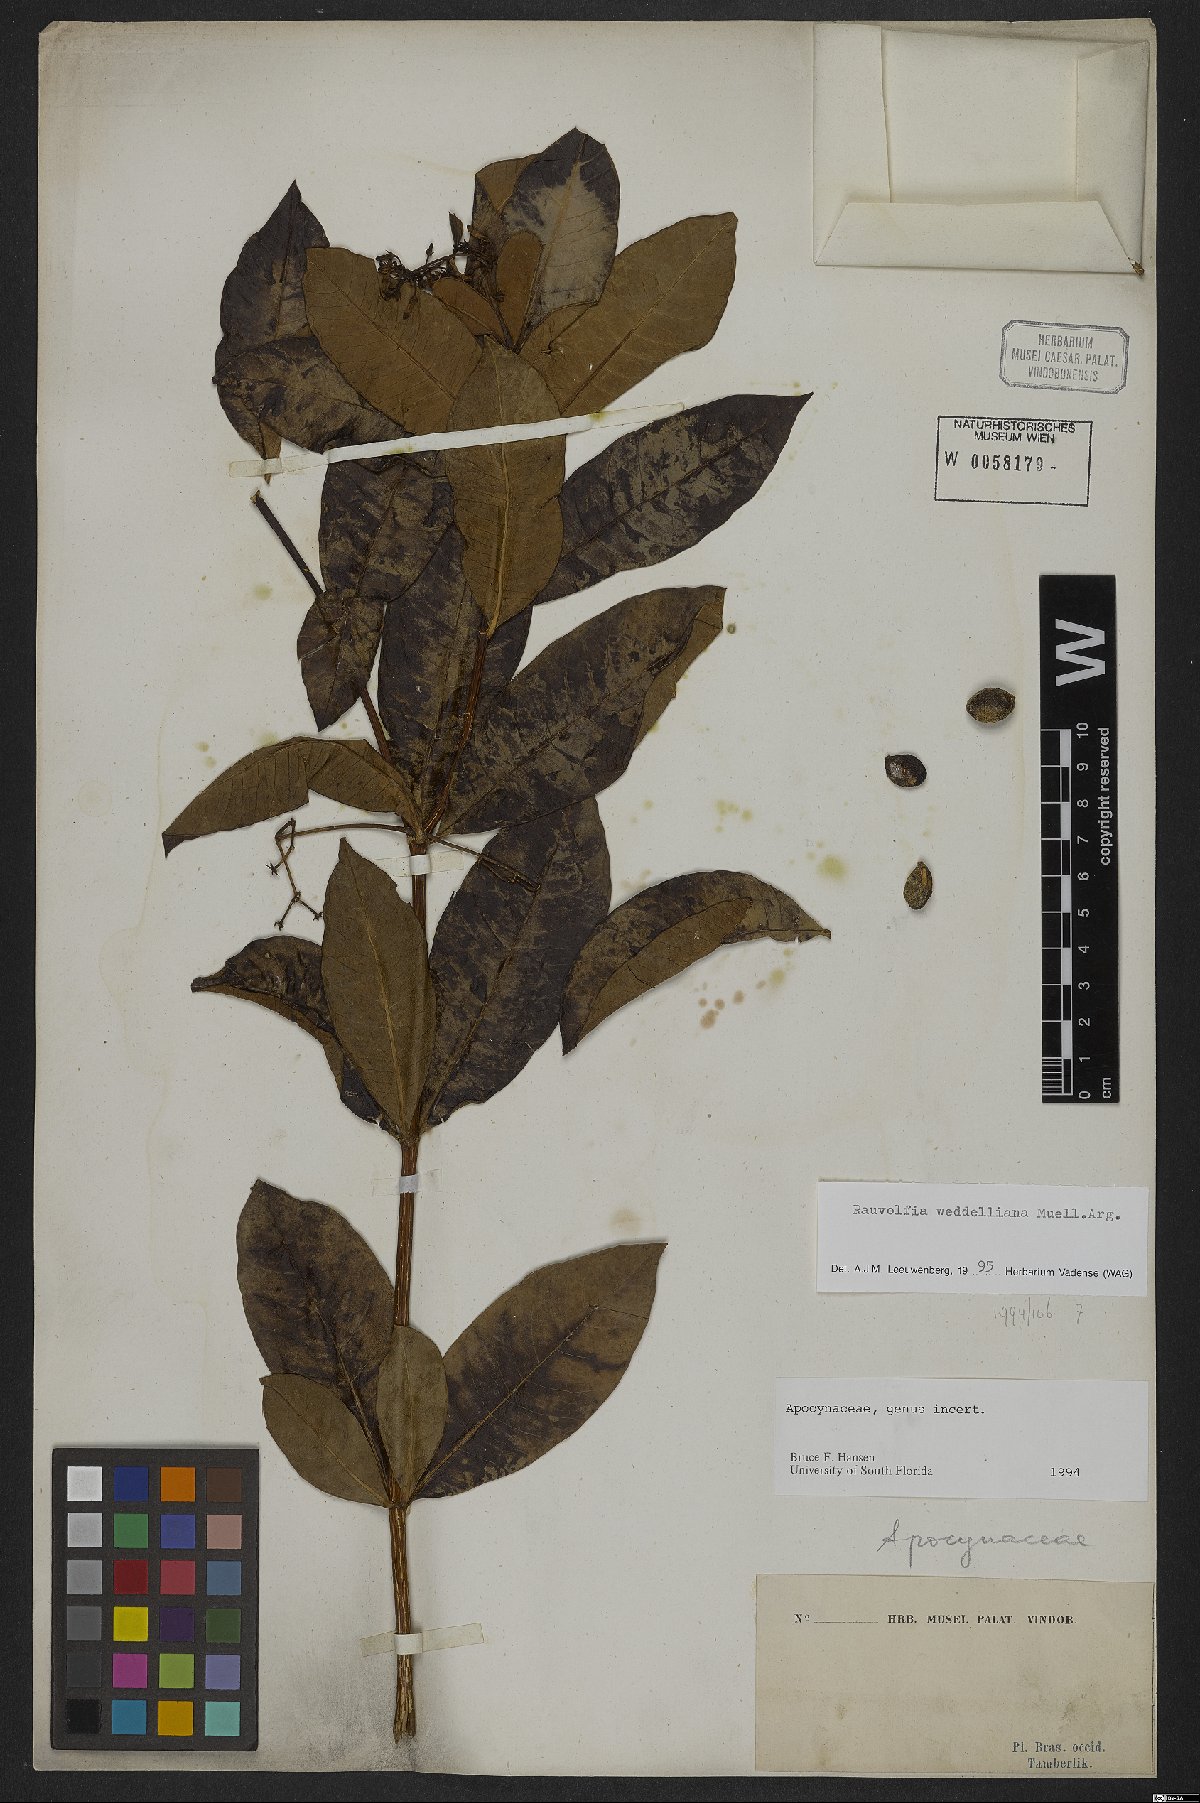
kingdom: Plantae
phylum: Tracheophyta
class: Magnoliopsida
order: Gentianales
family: Apocynaceae
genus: Rauvolfia
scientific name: Rauvolfia weddeliana
